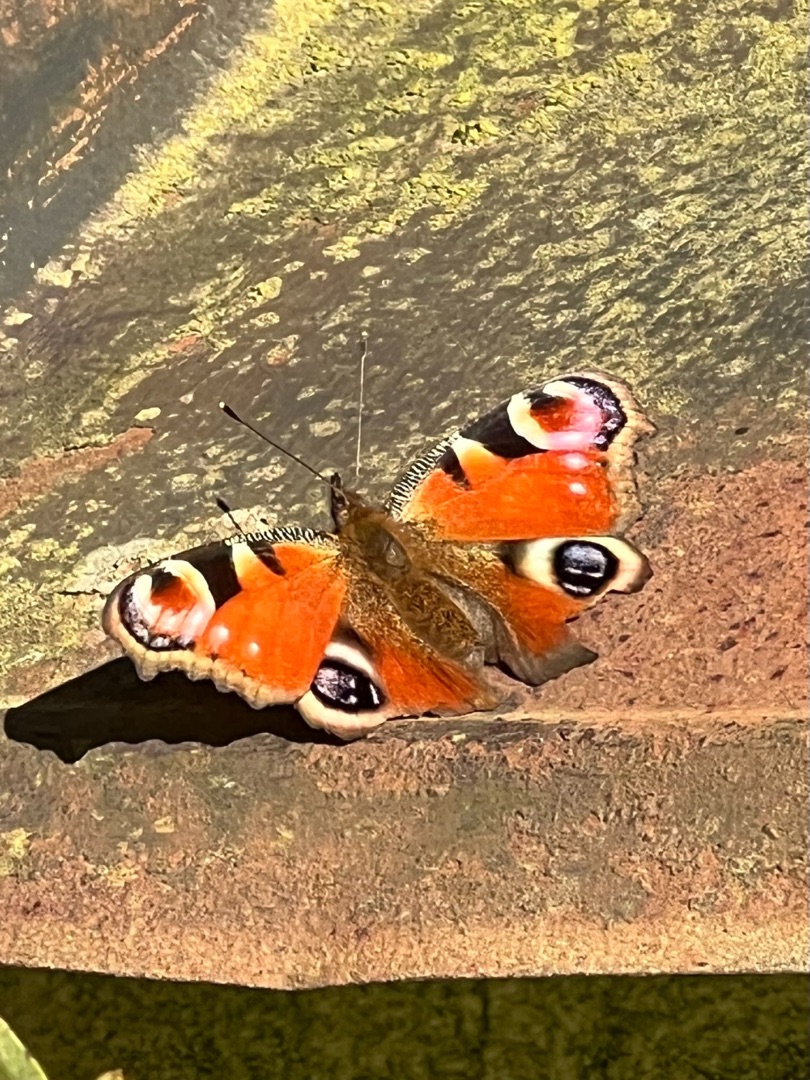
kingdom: Animalia
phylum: Arthropoda
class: Insecta
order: Lepidoptera
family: Nymphalidae
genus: Aglais
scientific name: Aglais io
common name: Dagpåfugleøje
